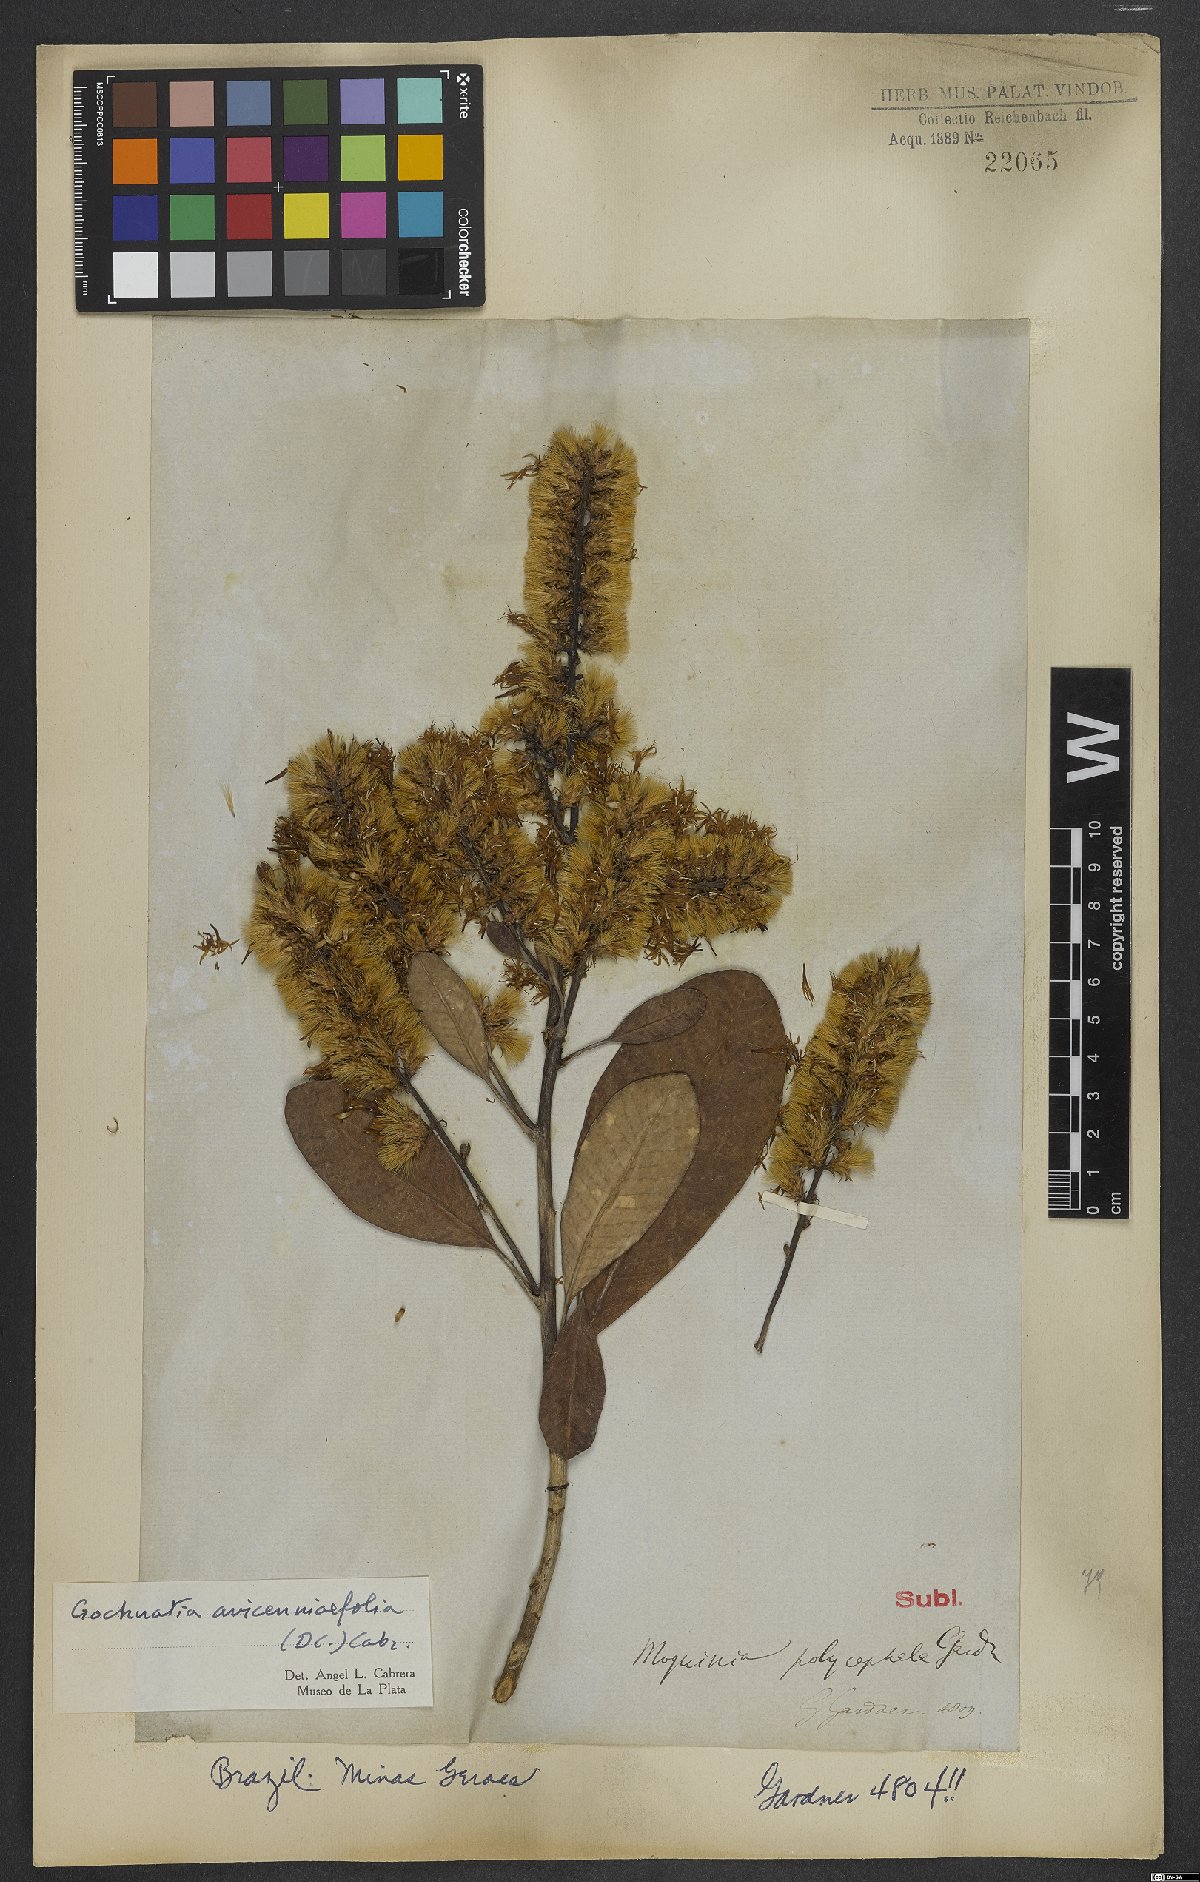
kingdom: Plantae
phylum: Tracheophyta
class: Magnoliopsida
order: Asterales
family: Asteraceae
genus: Gochnatia
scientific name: Gochnatia avicenniifolia
